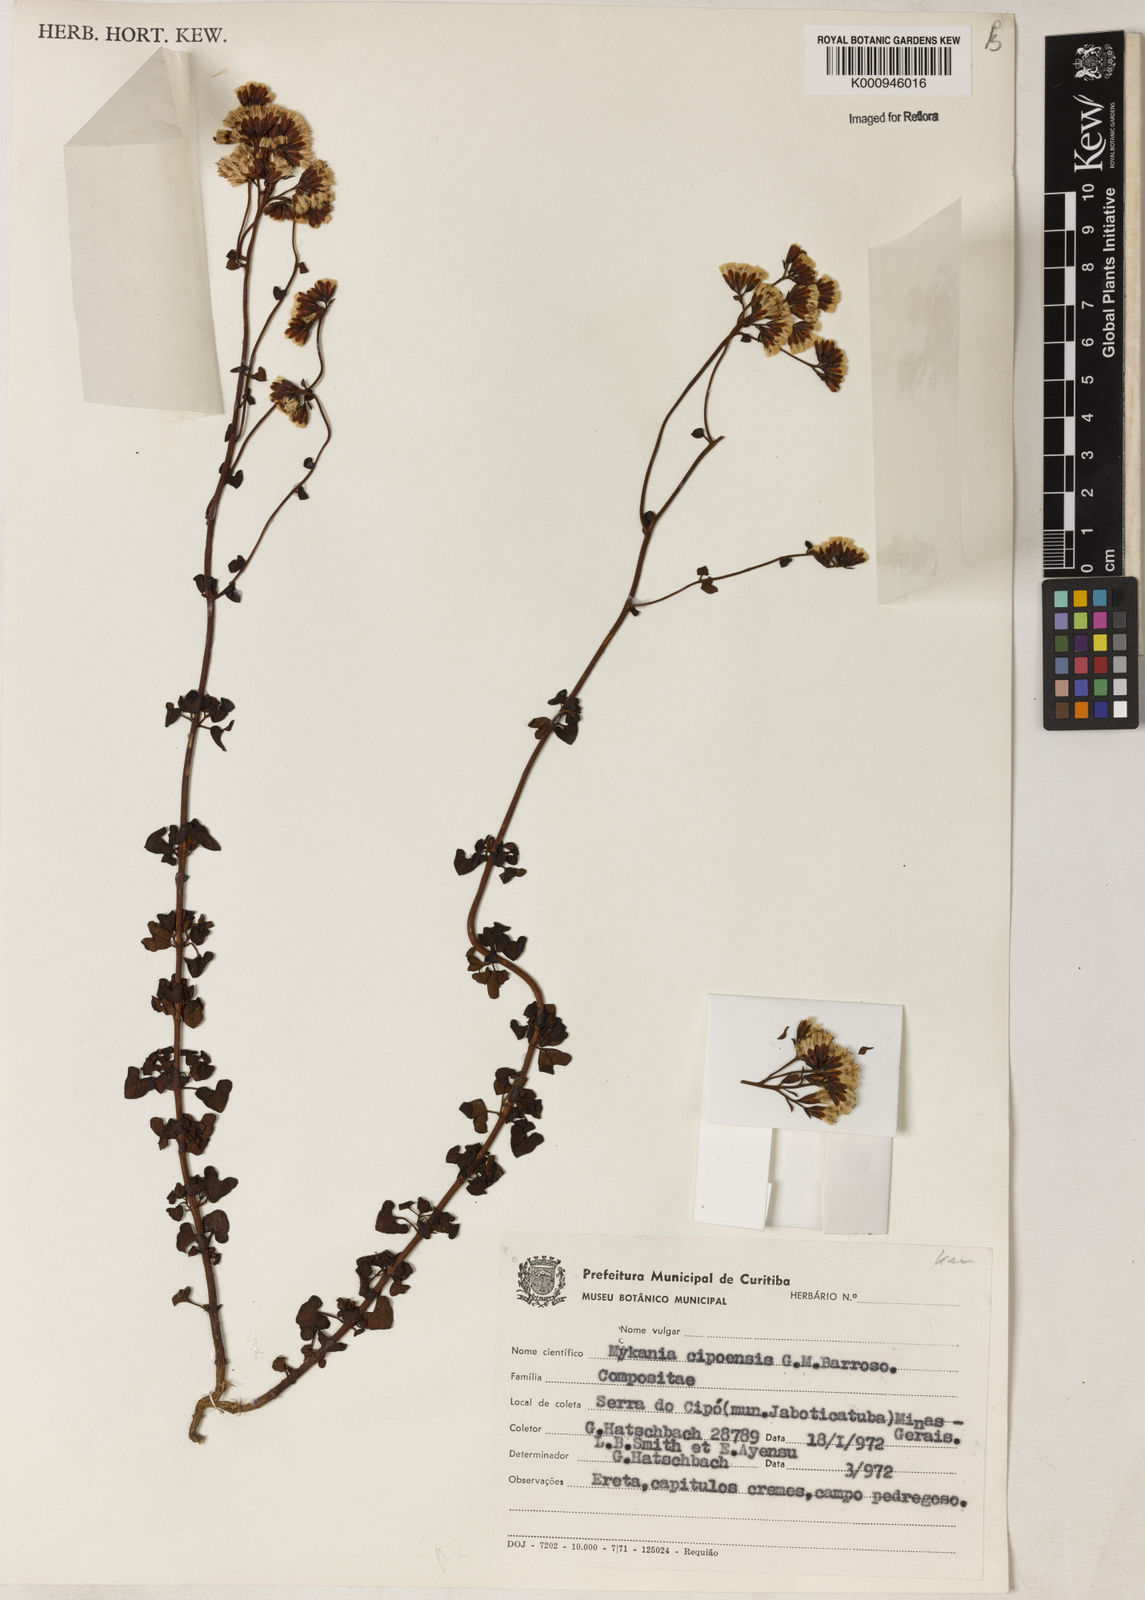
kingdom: Plantae
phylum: Tracheophyta
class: Magnoliopsida
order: Asterales
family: Asteraceae
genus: Mikania
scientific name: Mikania cipoensis
